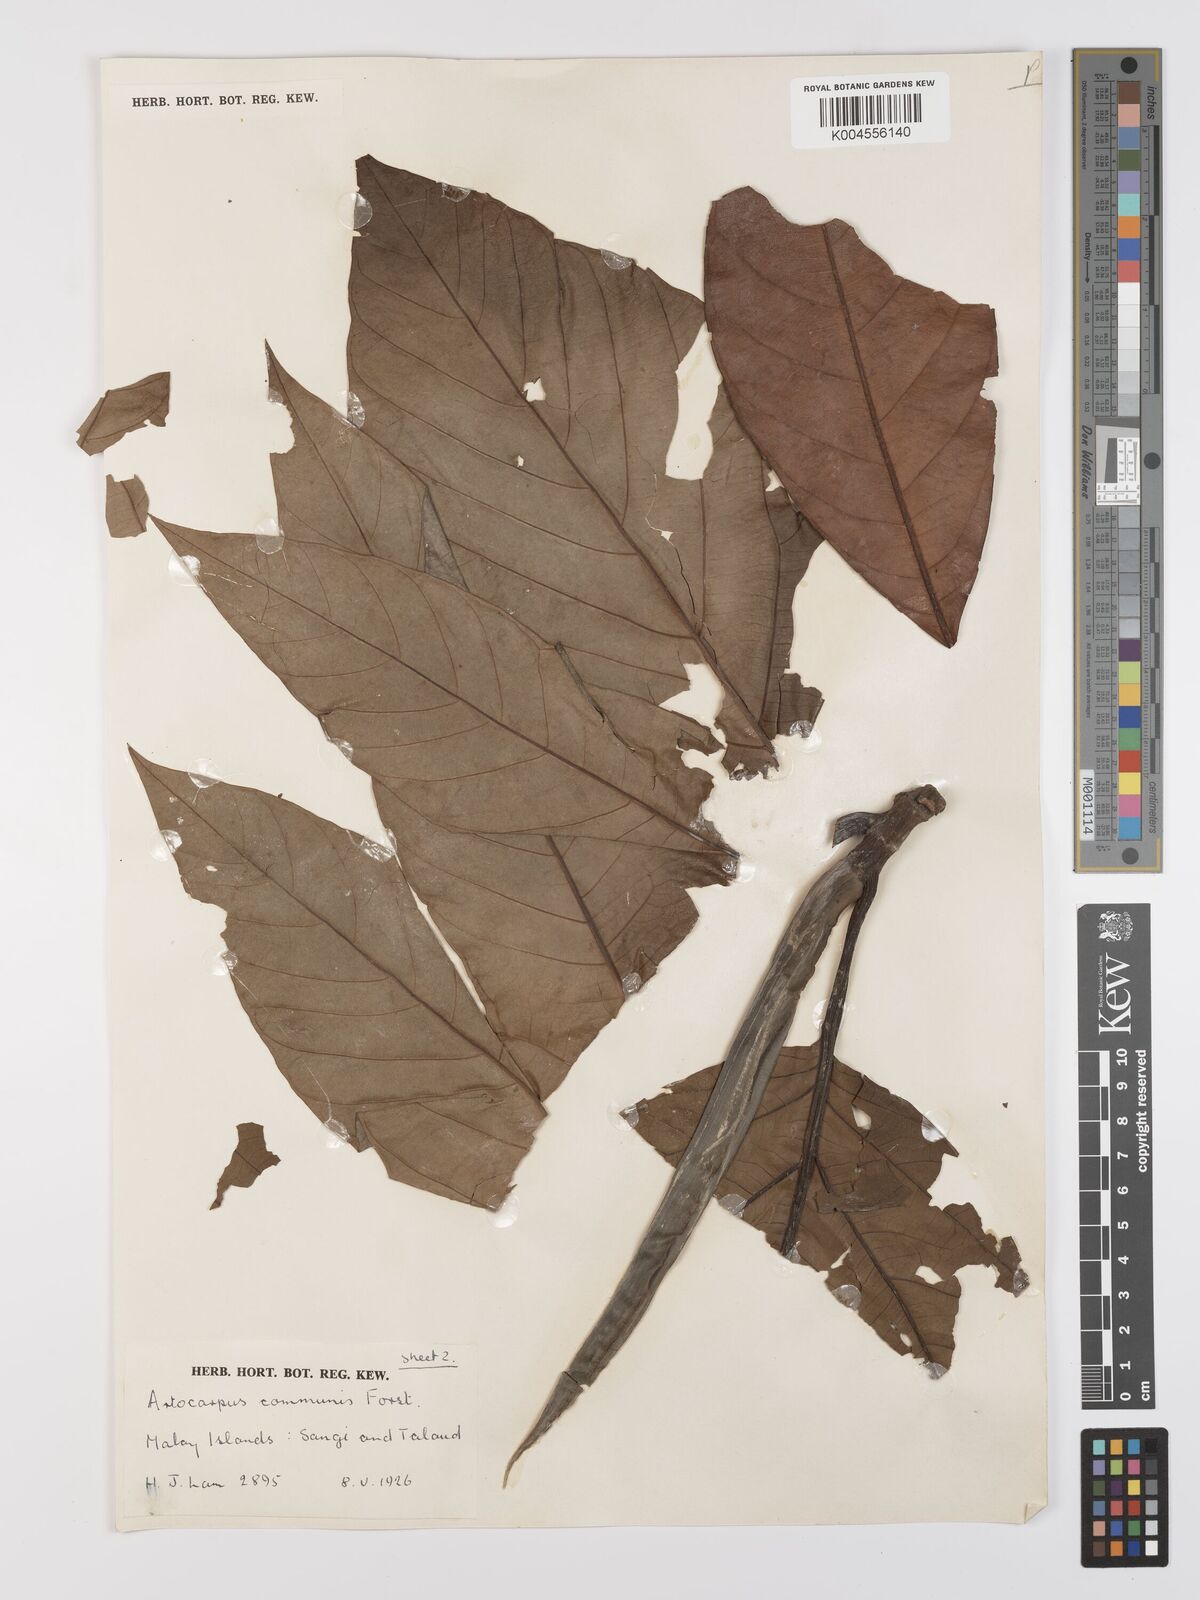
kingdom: Plantae
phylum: Tracheophyta
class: Magnoliopsida
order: Rosales
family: Moraceae
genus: Artocarpus
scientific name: Artocarpus altilis
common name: Breadfruit
